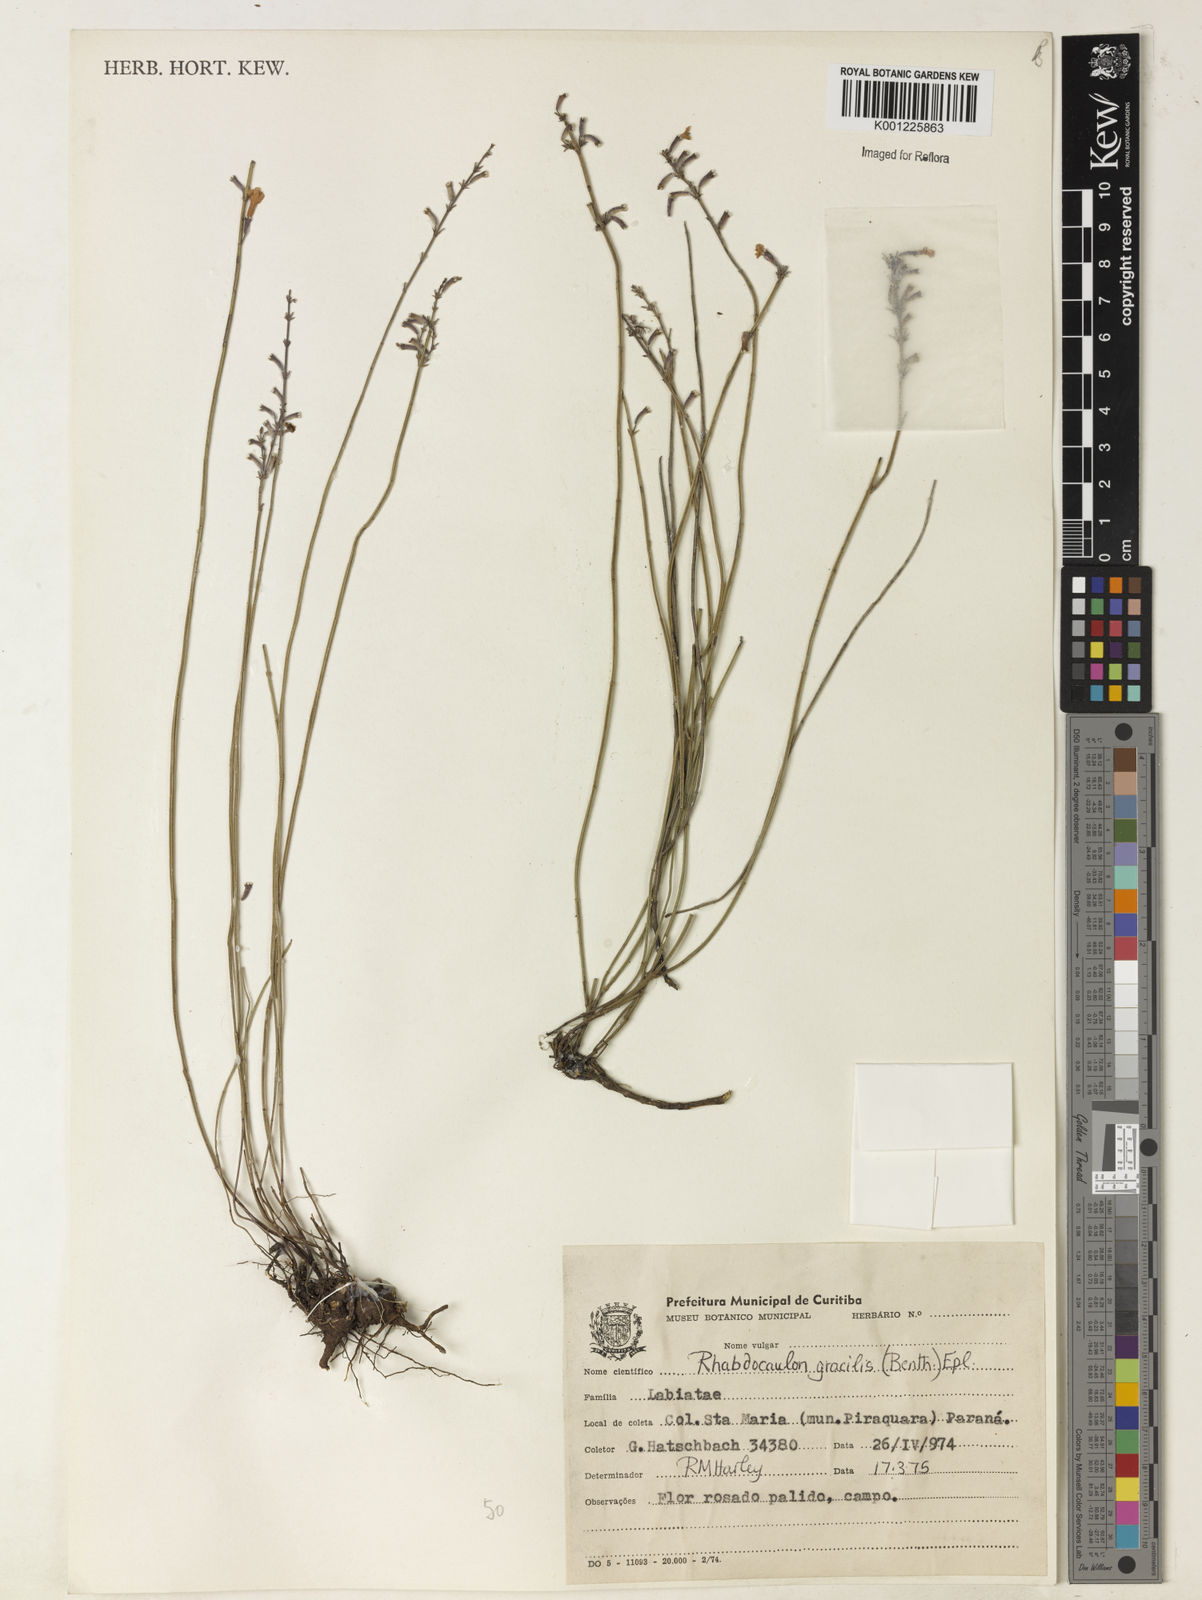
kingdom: Plantae
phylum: Tracheophyta
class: Magnoliopsida
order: Lamiales
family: Lamiaceae
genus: Rhabdocaulon
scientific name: Rhabdocaulon gracile
